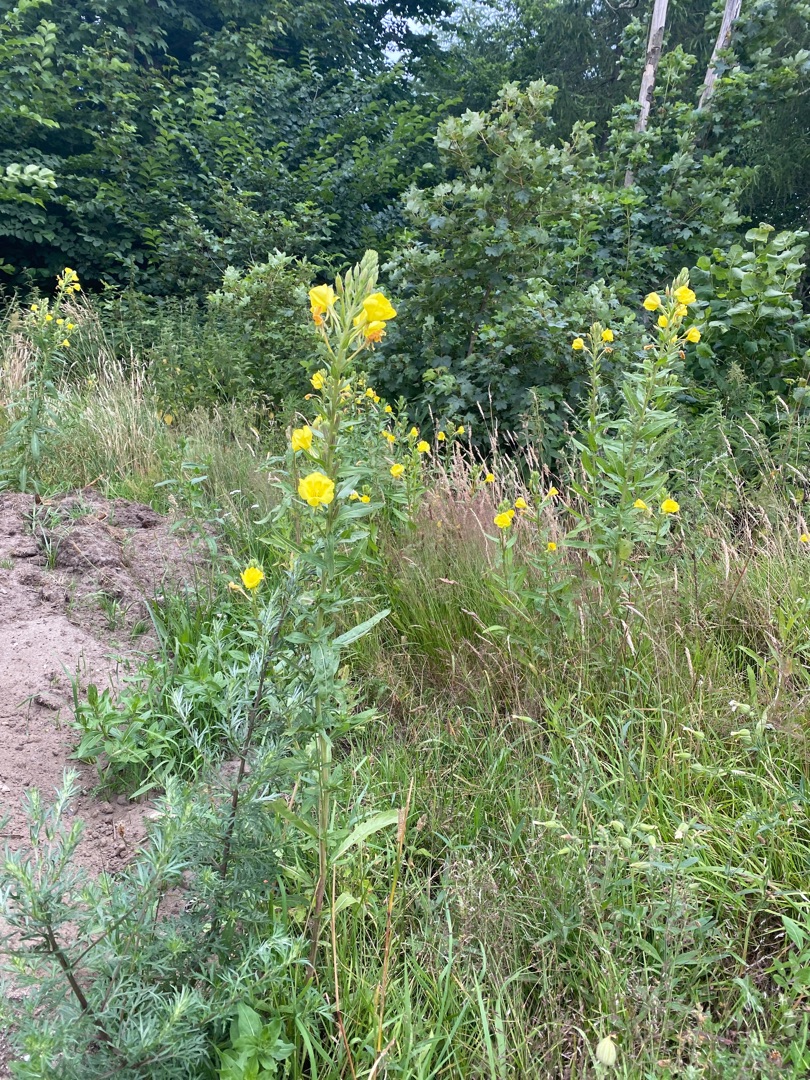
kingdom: Plantae
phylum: Tracheophyta
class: Magnoliopsida
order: Myrtales
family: Onagraceae
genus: Oenothera
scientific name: Oenothera fallax
